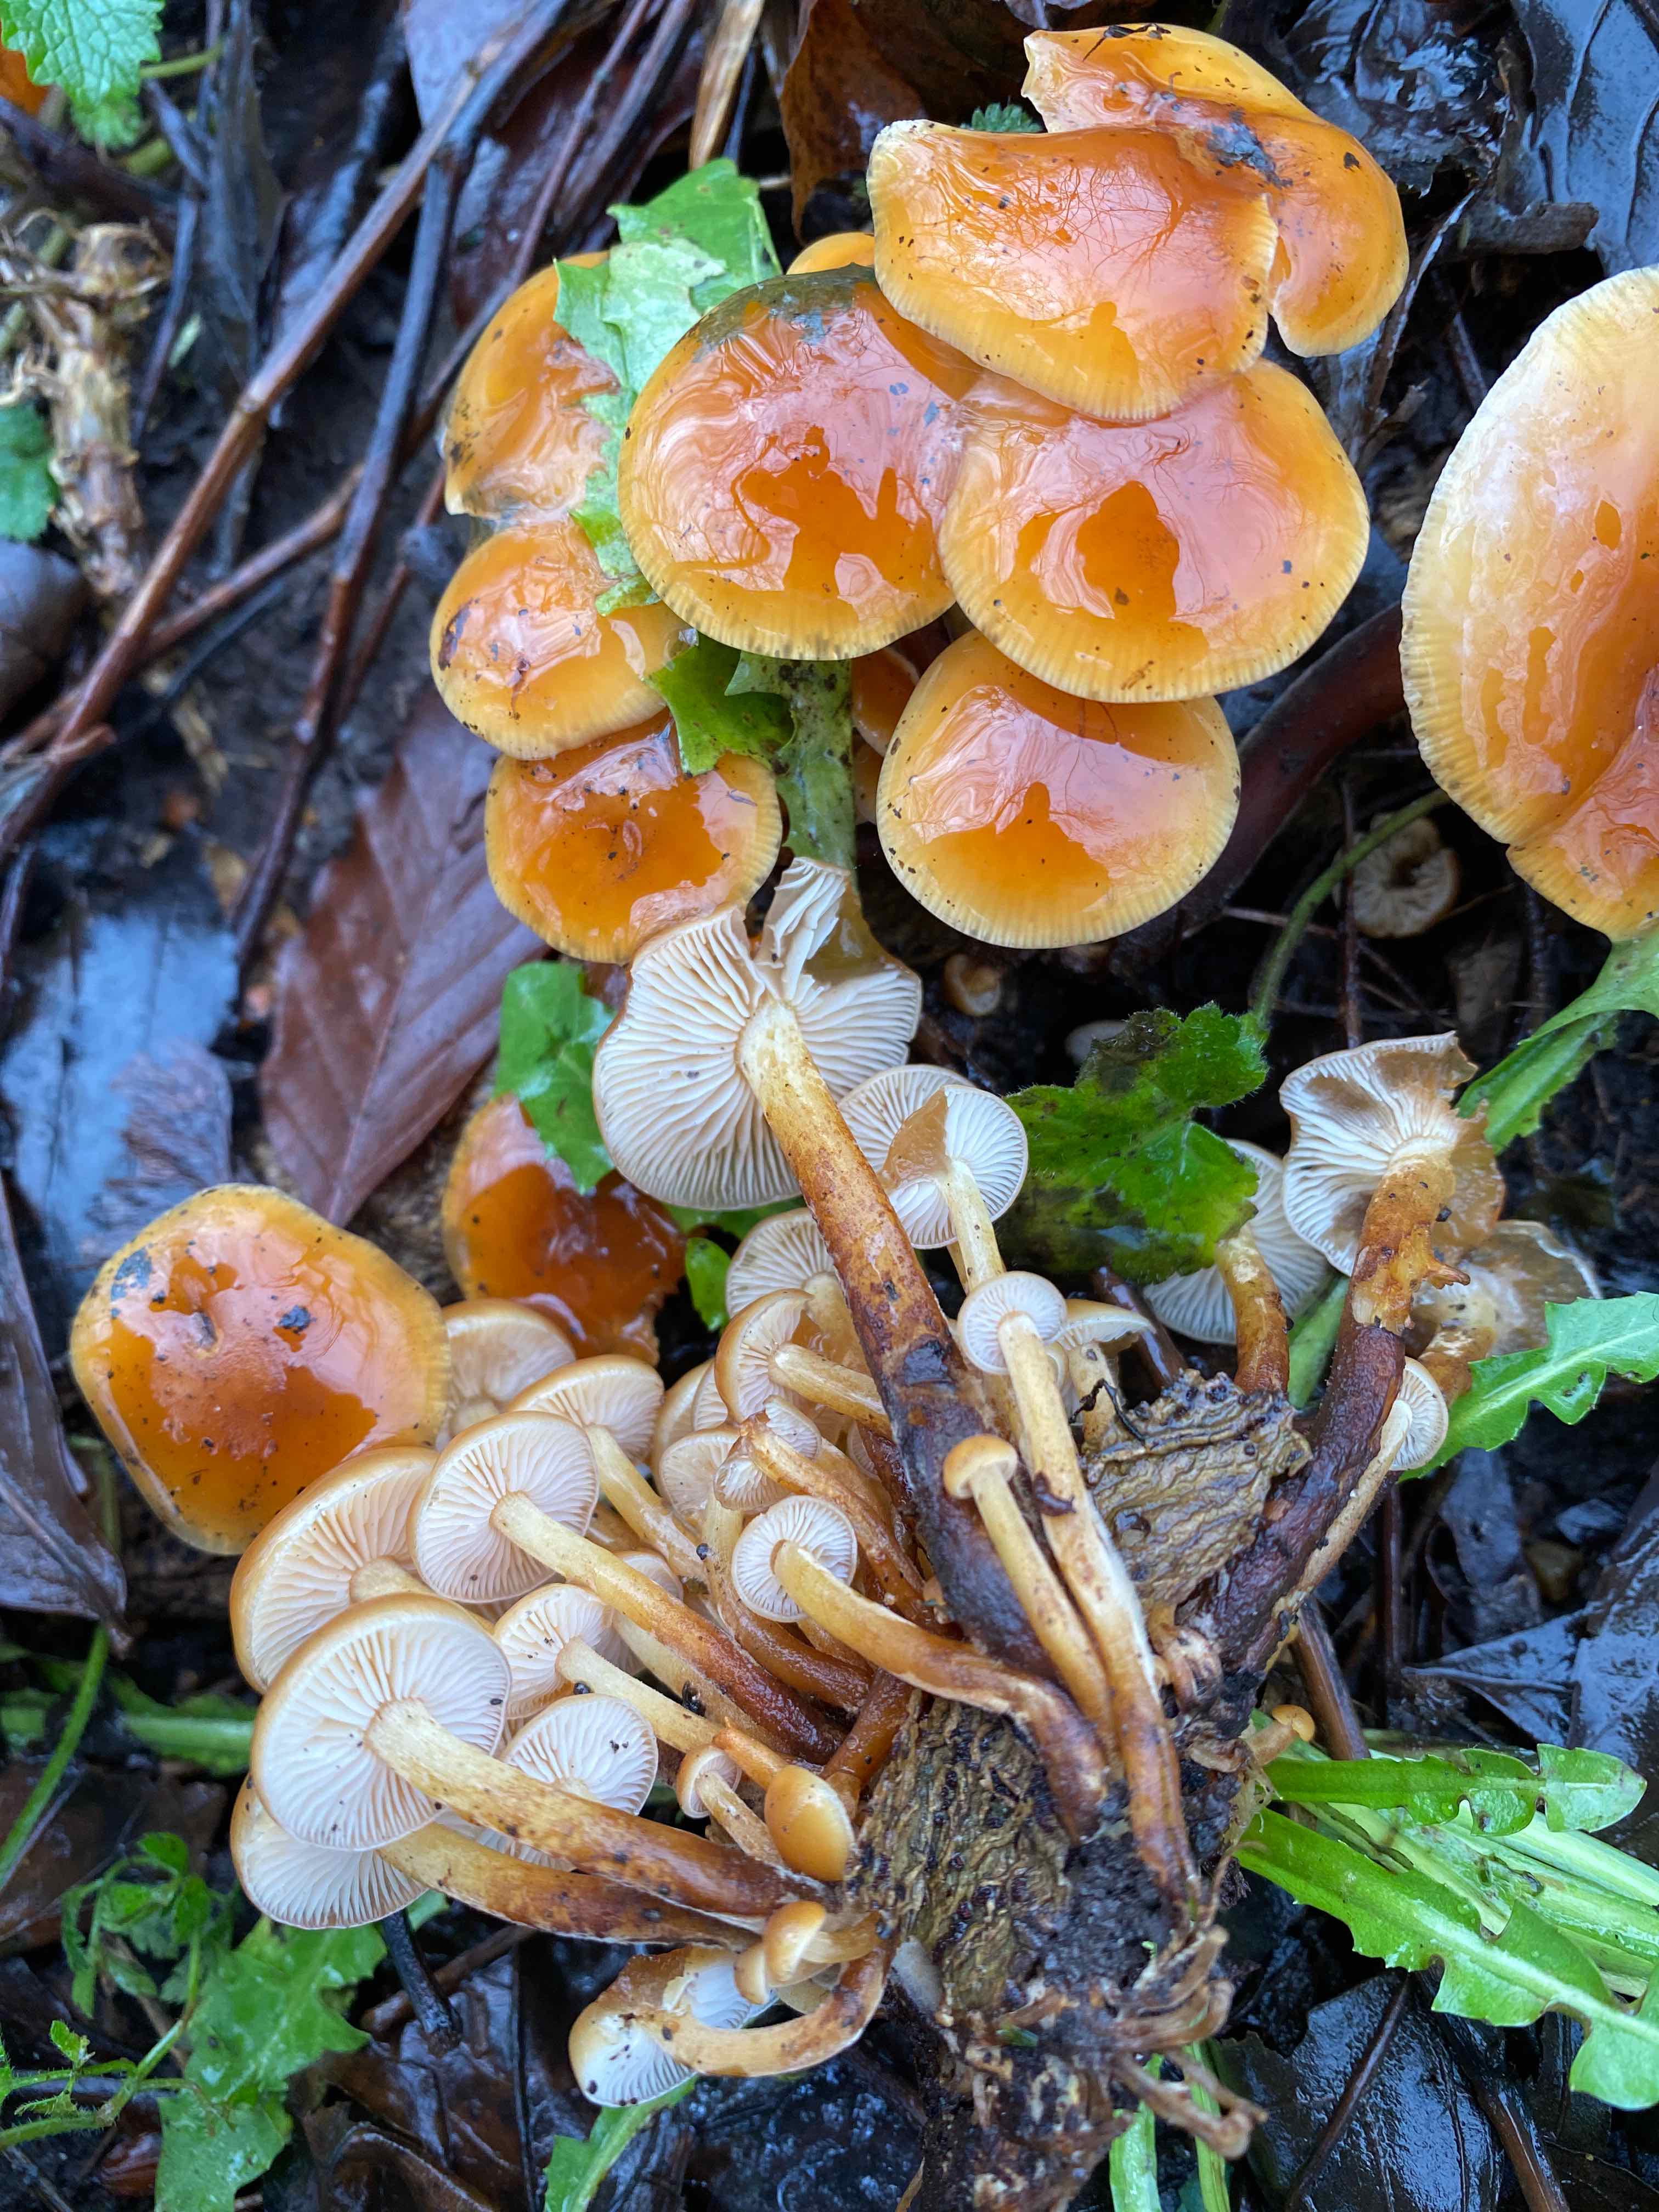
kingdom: Fungi
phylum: Basidiomycota
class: Agaricomycetes
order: Agaricales
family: Physalacriaceae
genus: Flammulina
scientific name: Flammulina velutipes
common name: gul fløjlsfod
